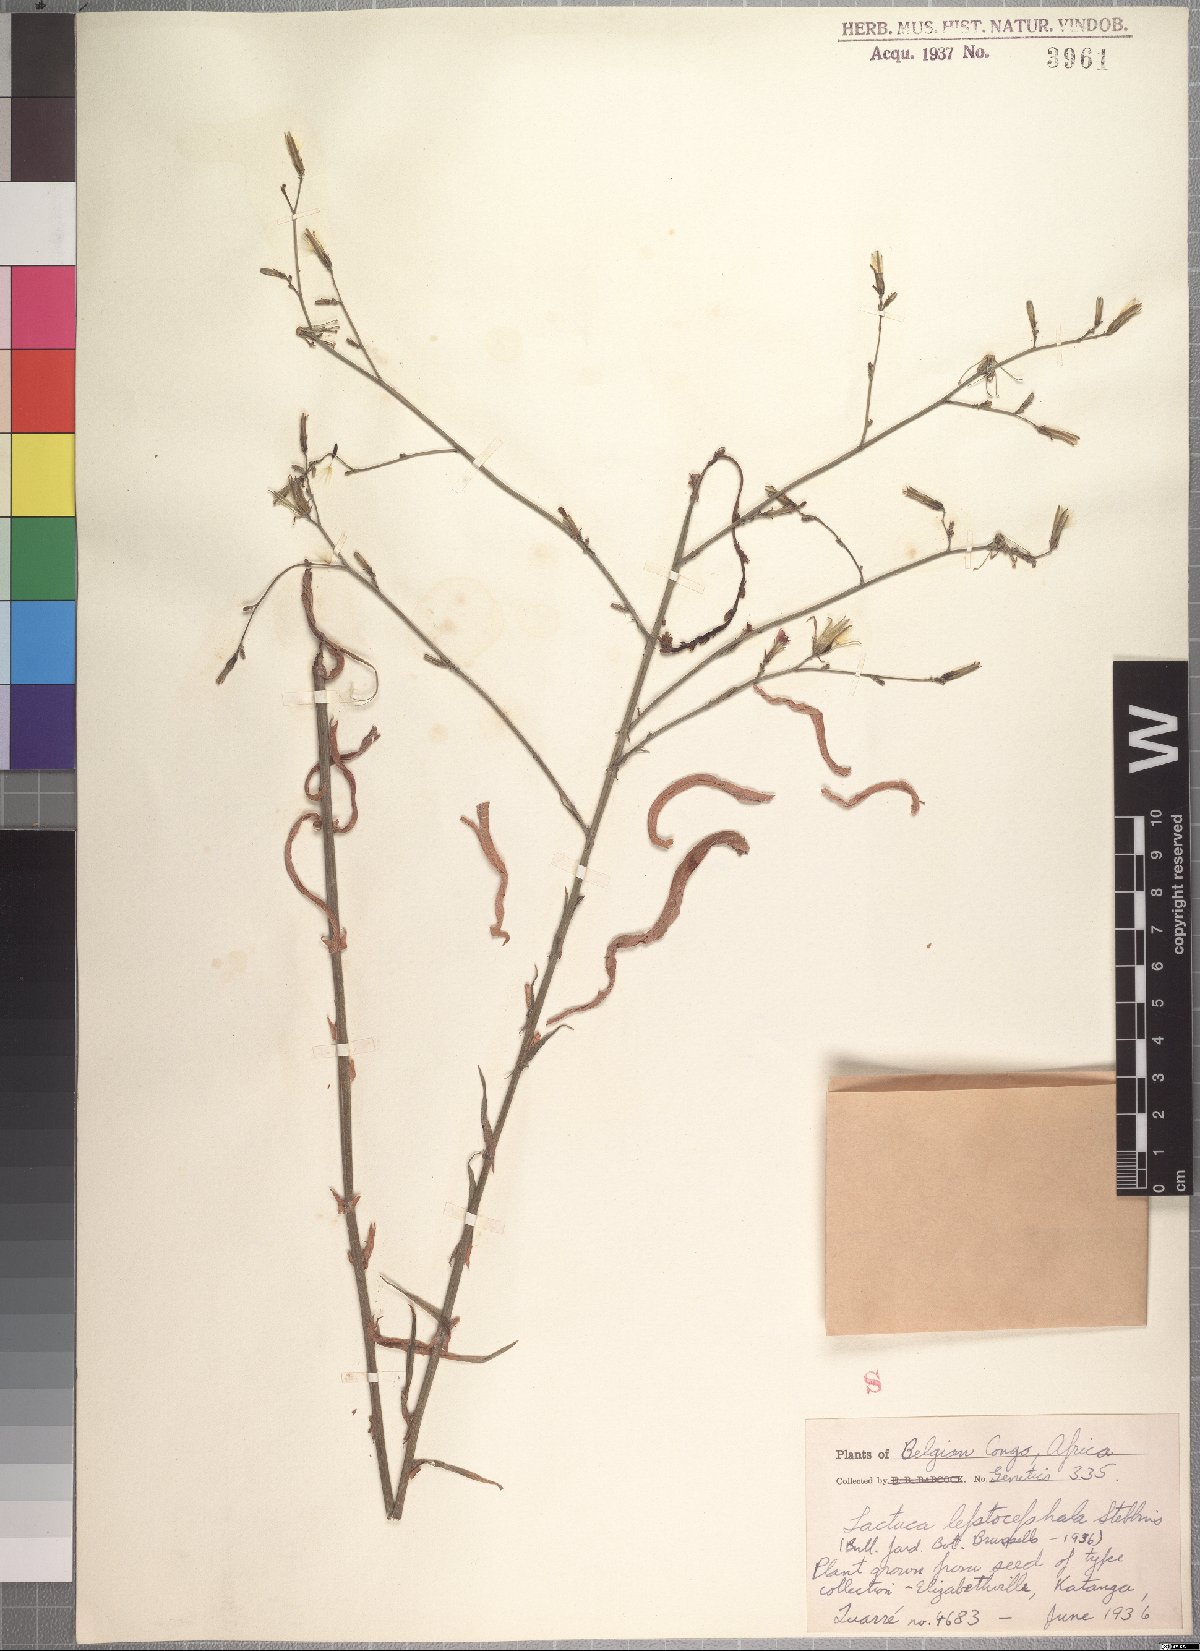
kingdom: Plantae
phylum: Tracheophyta
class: Magnoliopsida
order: Asterales
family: Asteraceae
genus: Lactuca
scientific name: Lactuca inermis
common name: Wild lettuce
